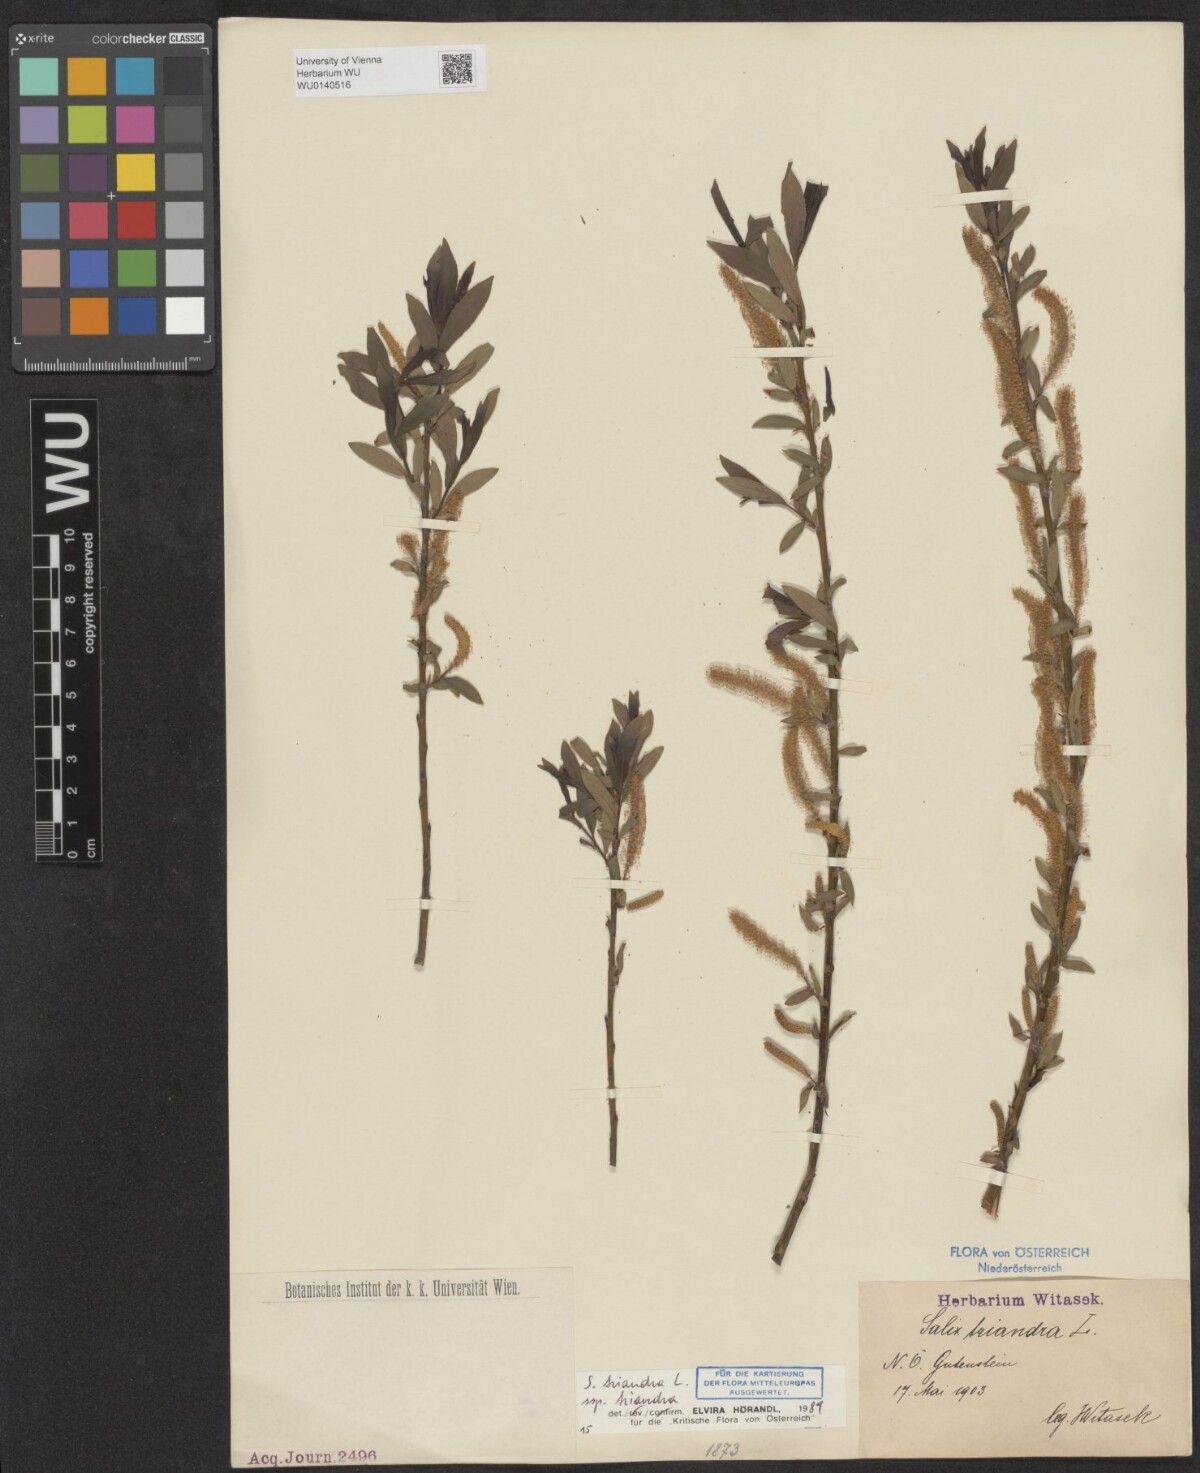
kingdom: Plantae
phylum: Tracheophyta
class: Magnoliopsida
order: Malpighiales
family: Salicaceae
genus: Salix
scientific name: Salix triandra
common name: Almond willow
